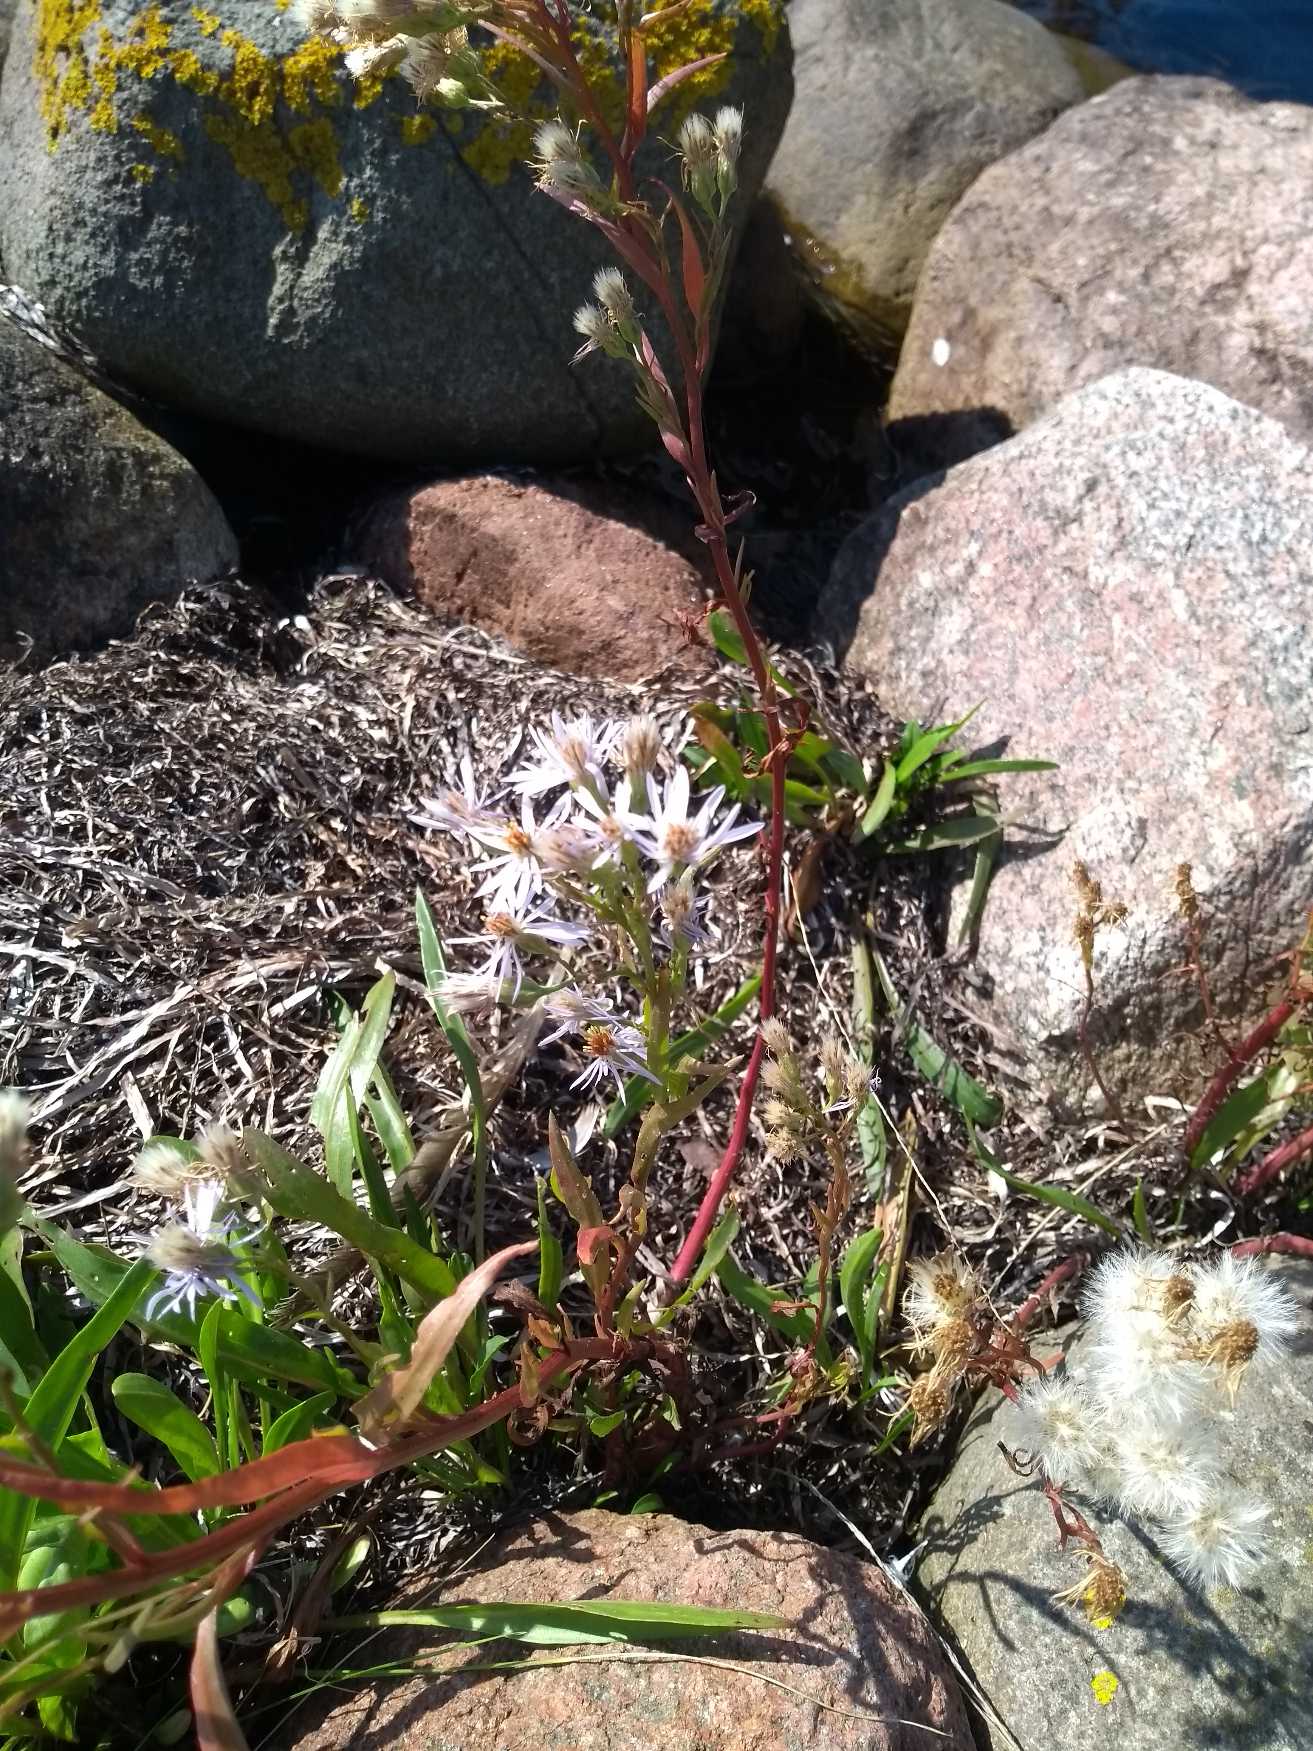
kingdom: Plantae
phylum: Tracheophyta
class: Magnoliopsida
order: Asterales
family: Asteraceae
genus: Tripolium
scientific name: Tripolium pannonicum
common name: Strandasters
